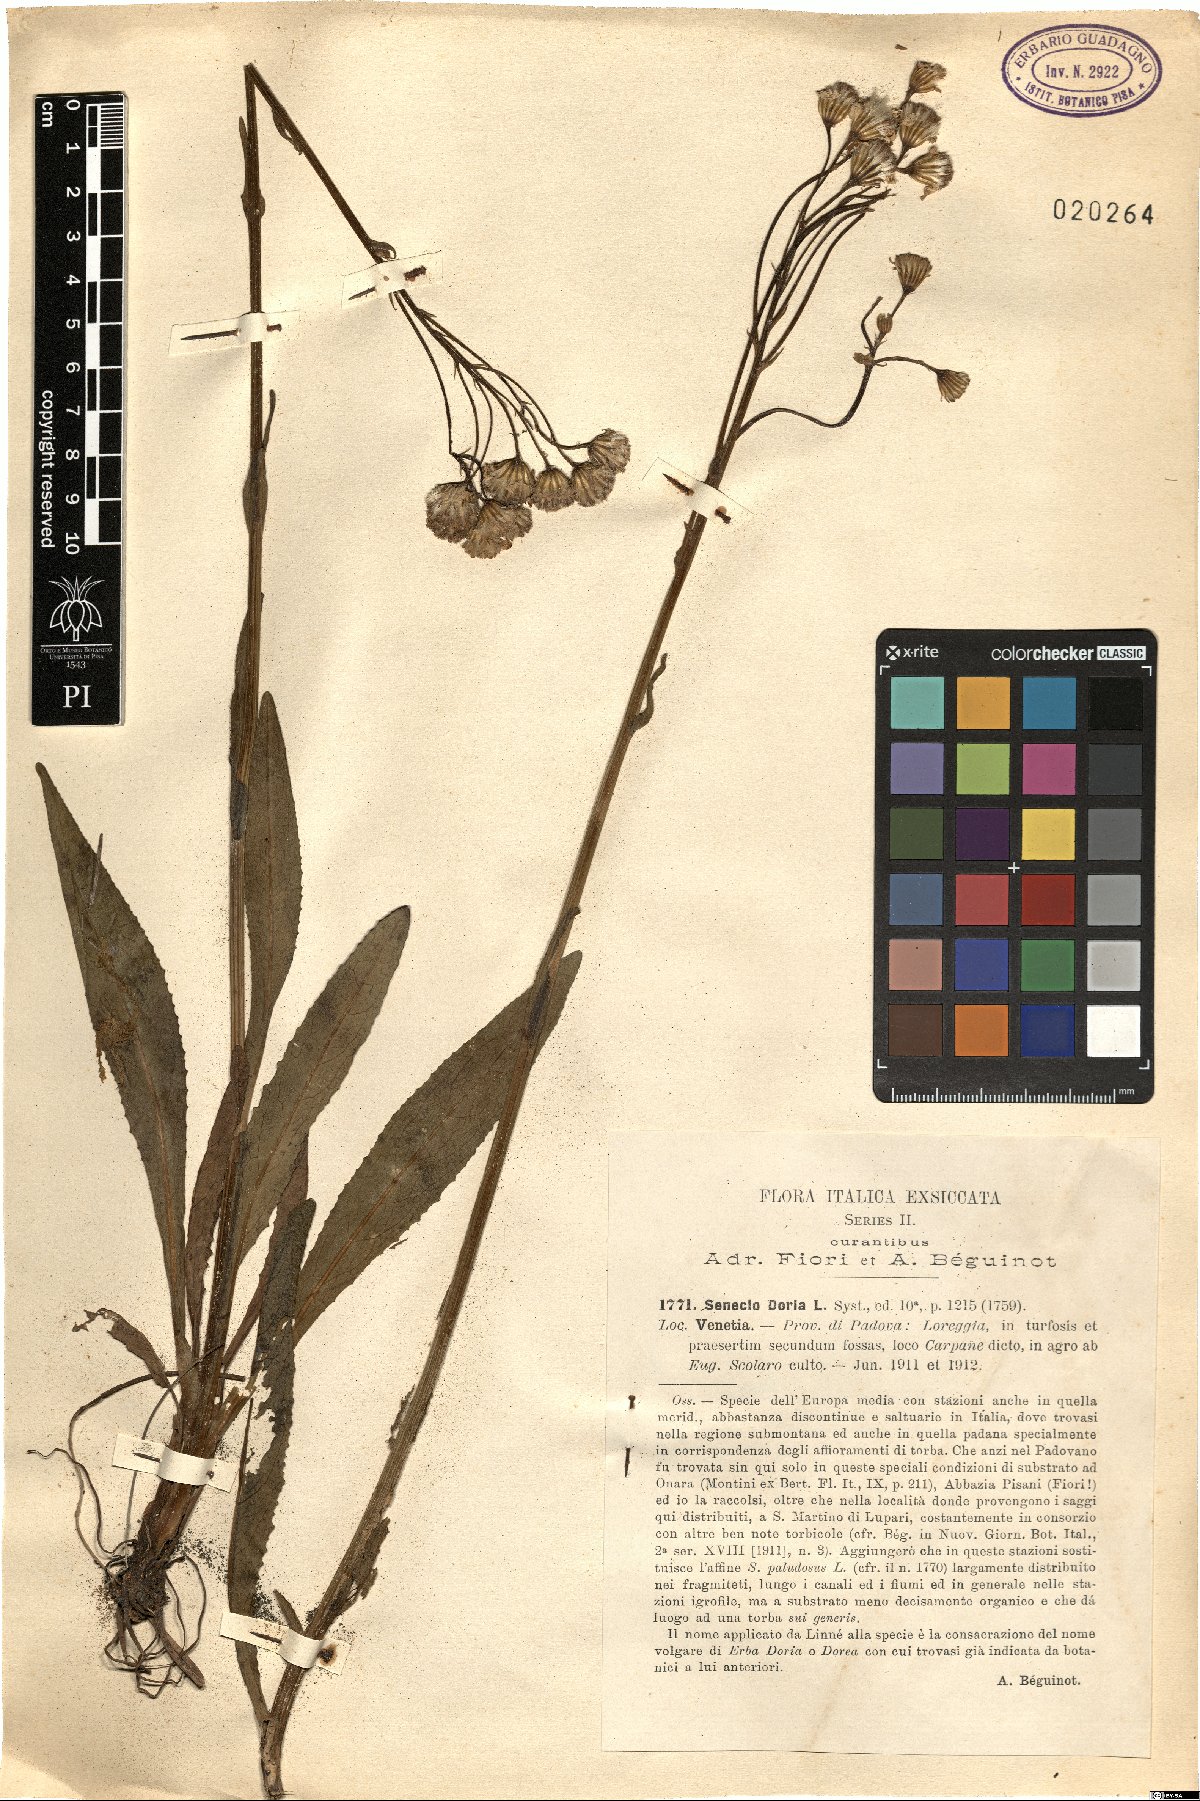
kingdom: Plantae
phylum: Tracheophyta
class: Magnoliopsida
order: Asterales
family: Asteraceae
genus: Senecio
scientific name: Senecio doria
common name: Golden ragwort
